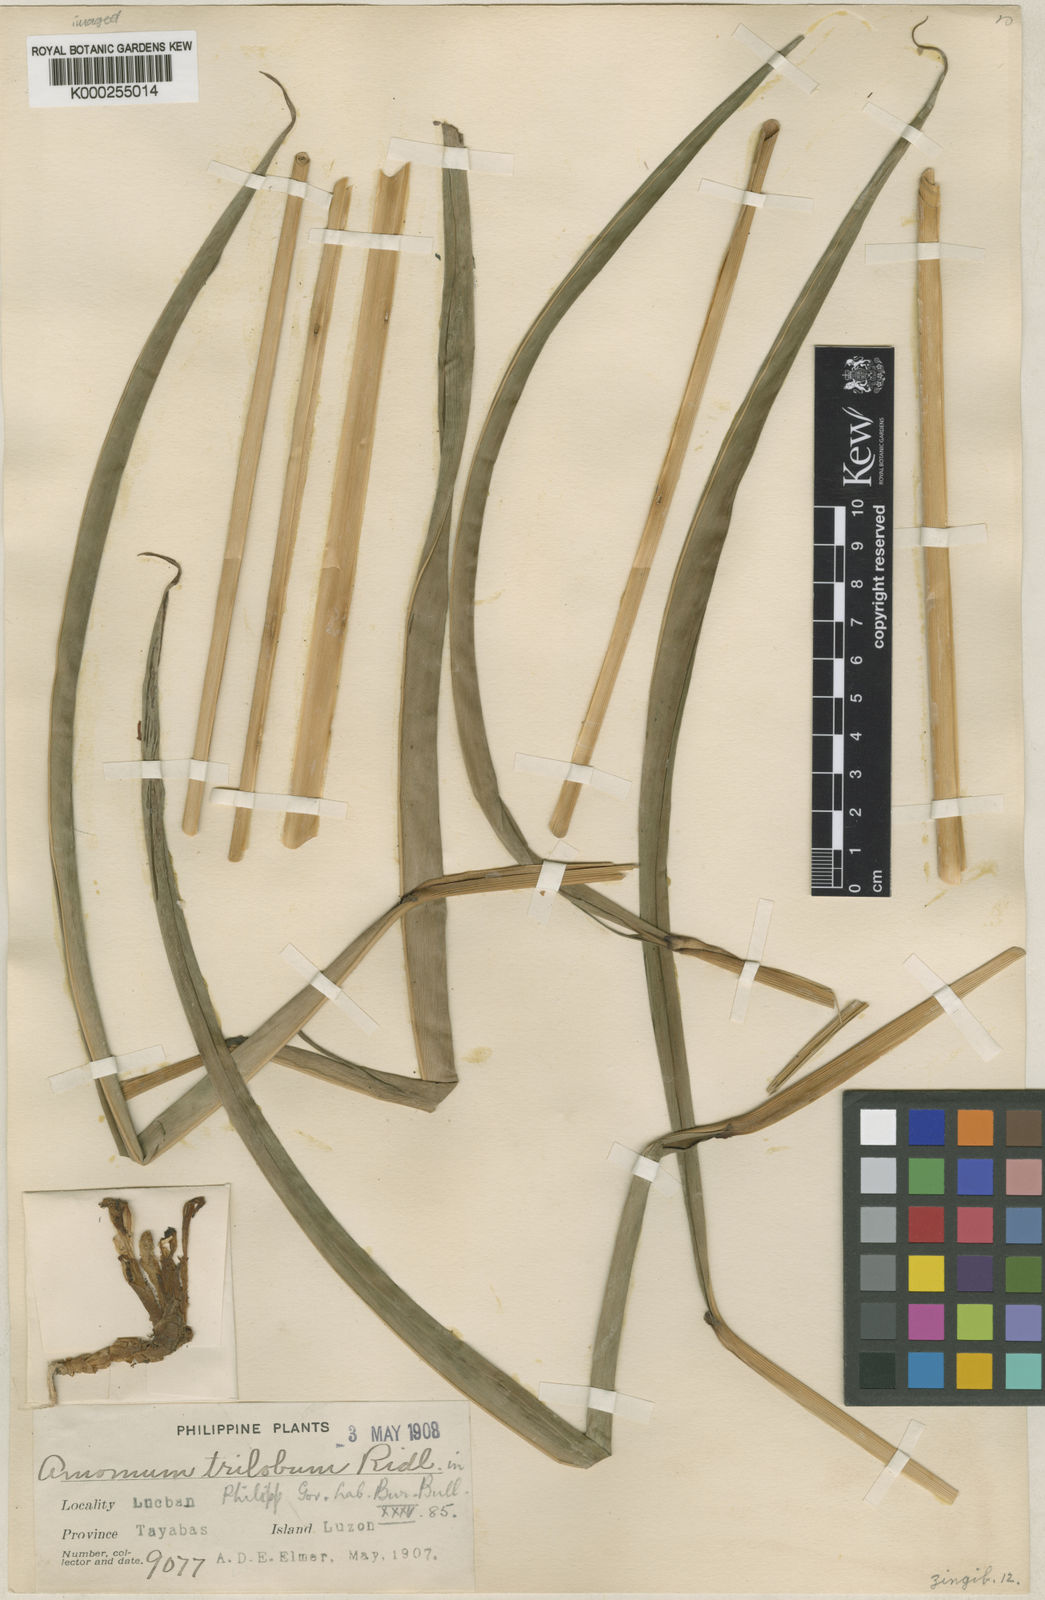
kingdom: Plantae
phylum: Tracheophyta
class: Liliopsida
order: Zingiberales
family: Zingiberaceae
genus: Wurfbainia
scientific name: Wurfbainia elegans
